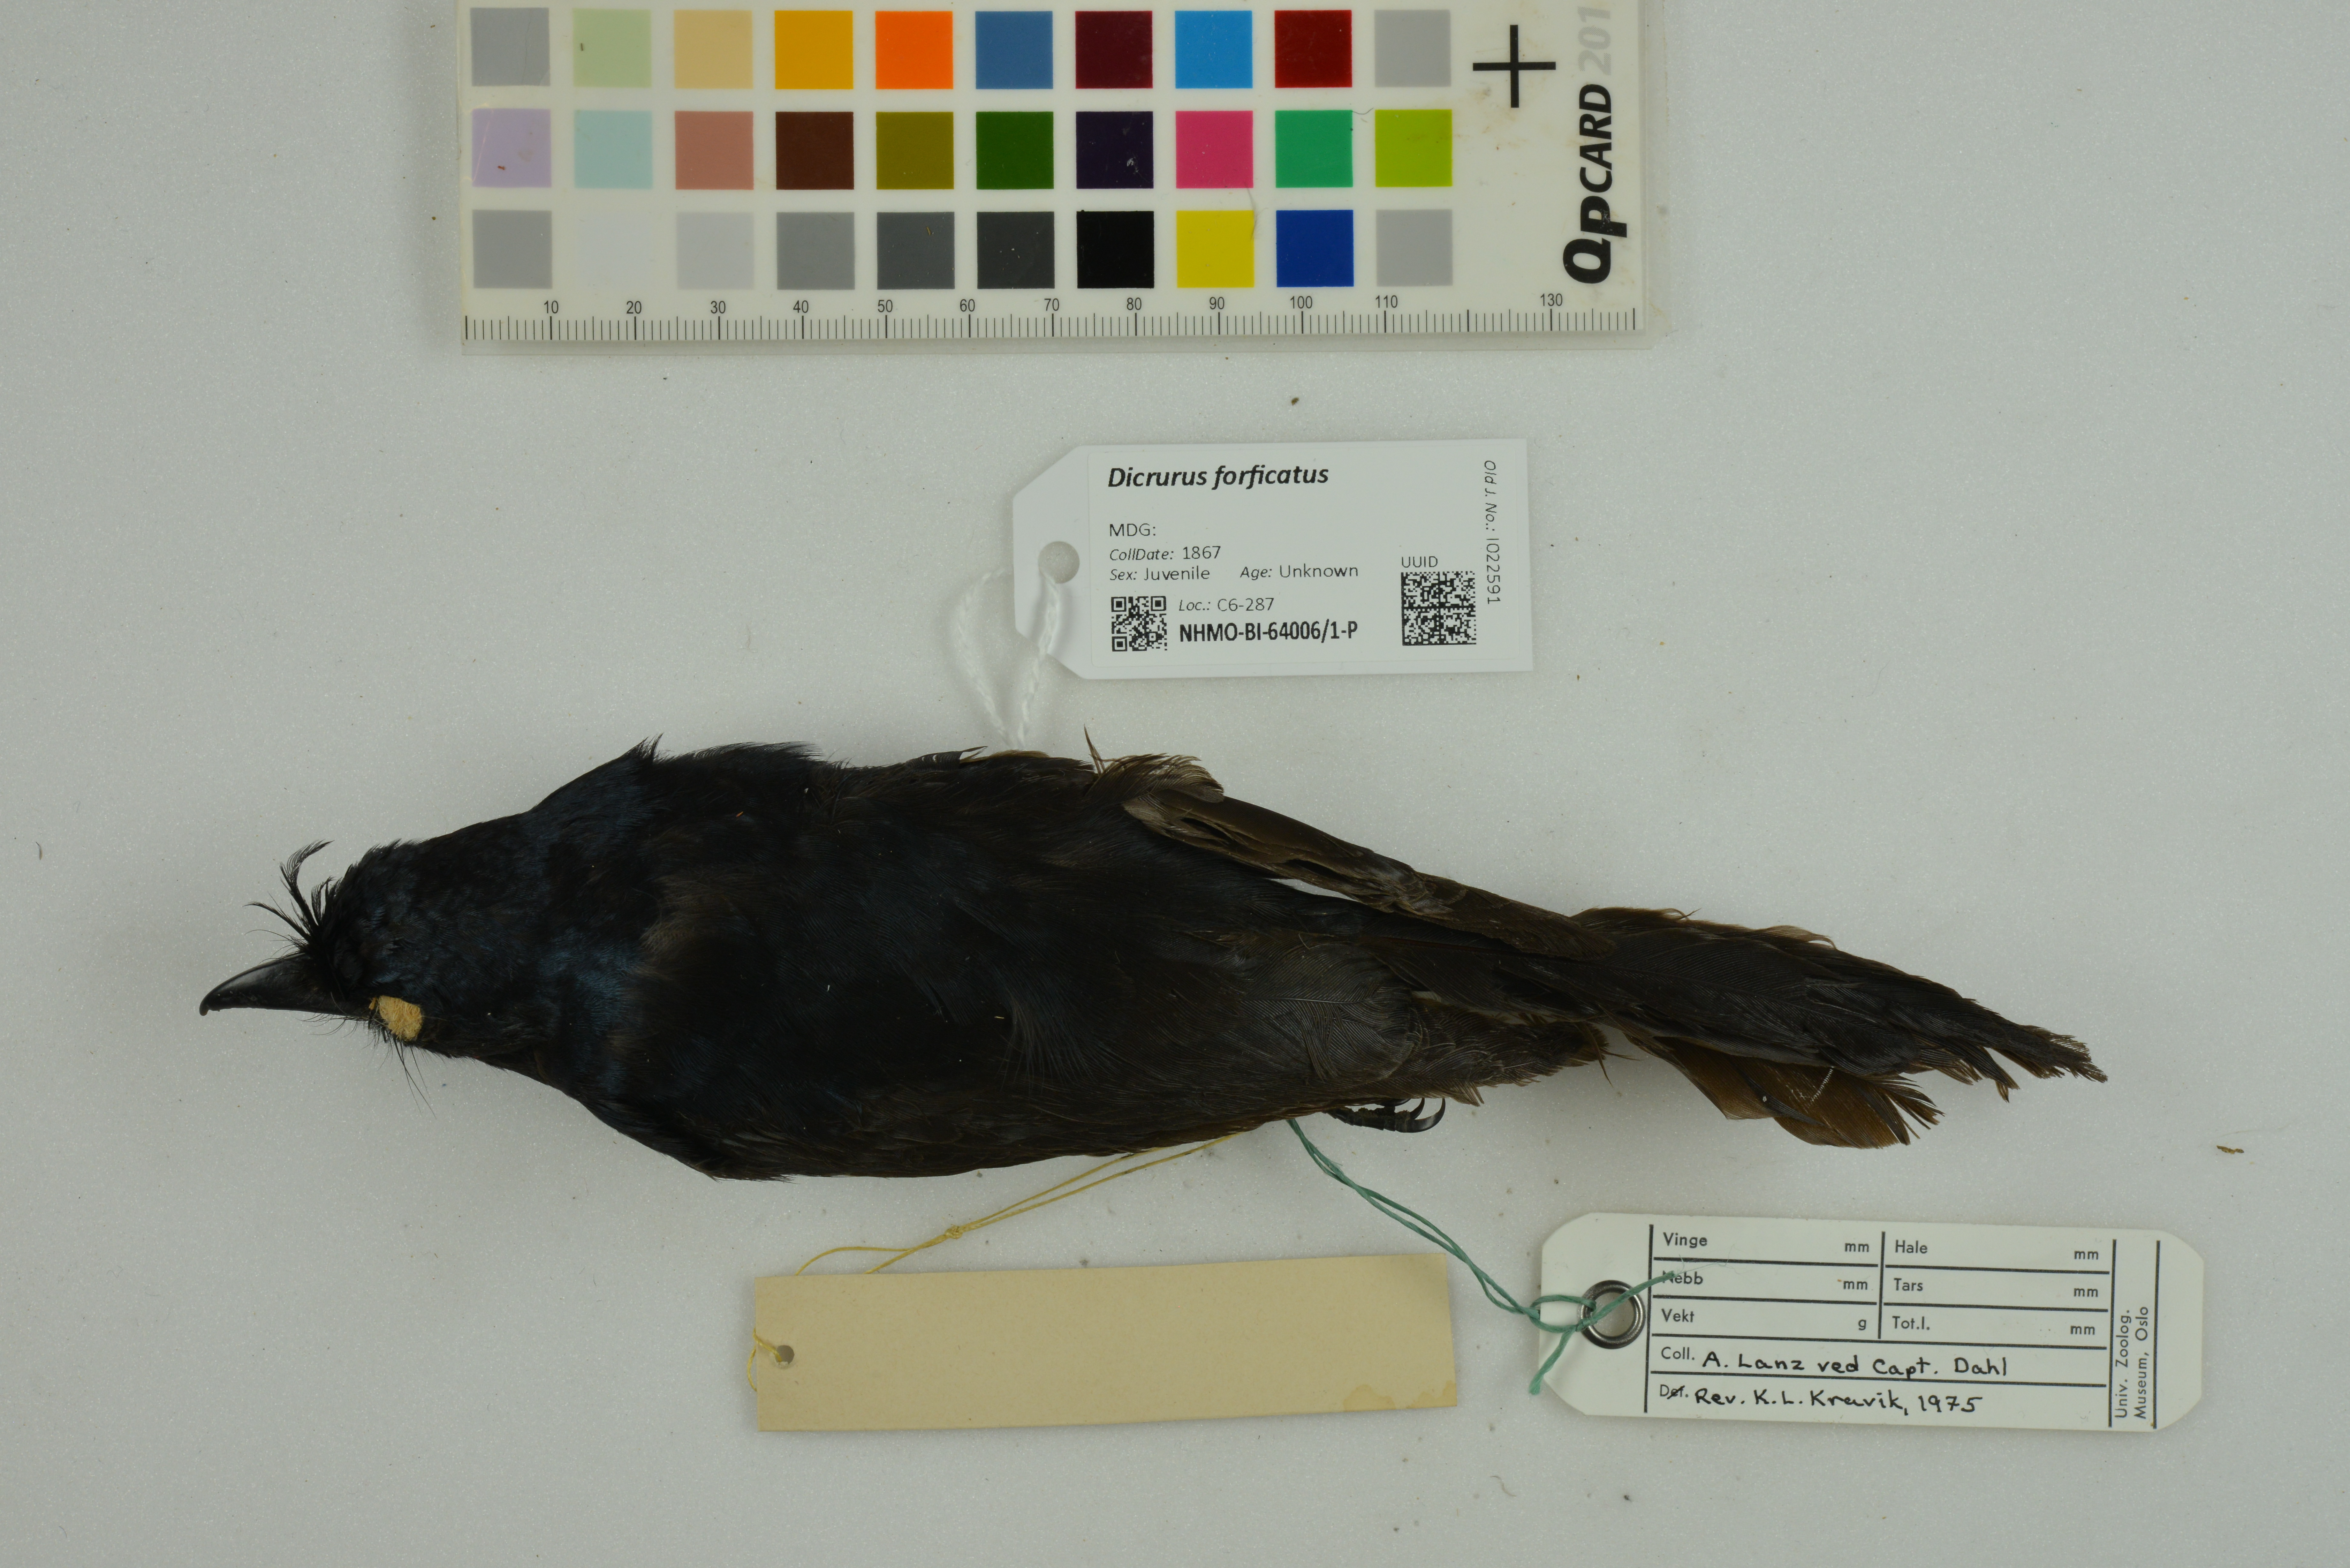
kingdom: Animalia
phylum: Chordata
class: Aves
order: Passeriformes
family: Dicruridae
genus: Dicrurus
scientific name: Dicrurus forficatus
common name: Crested drongo
